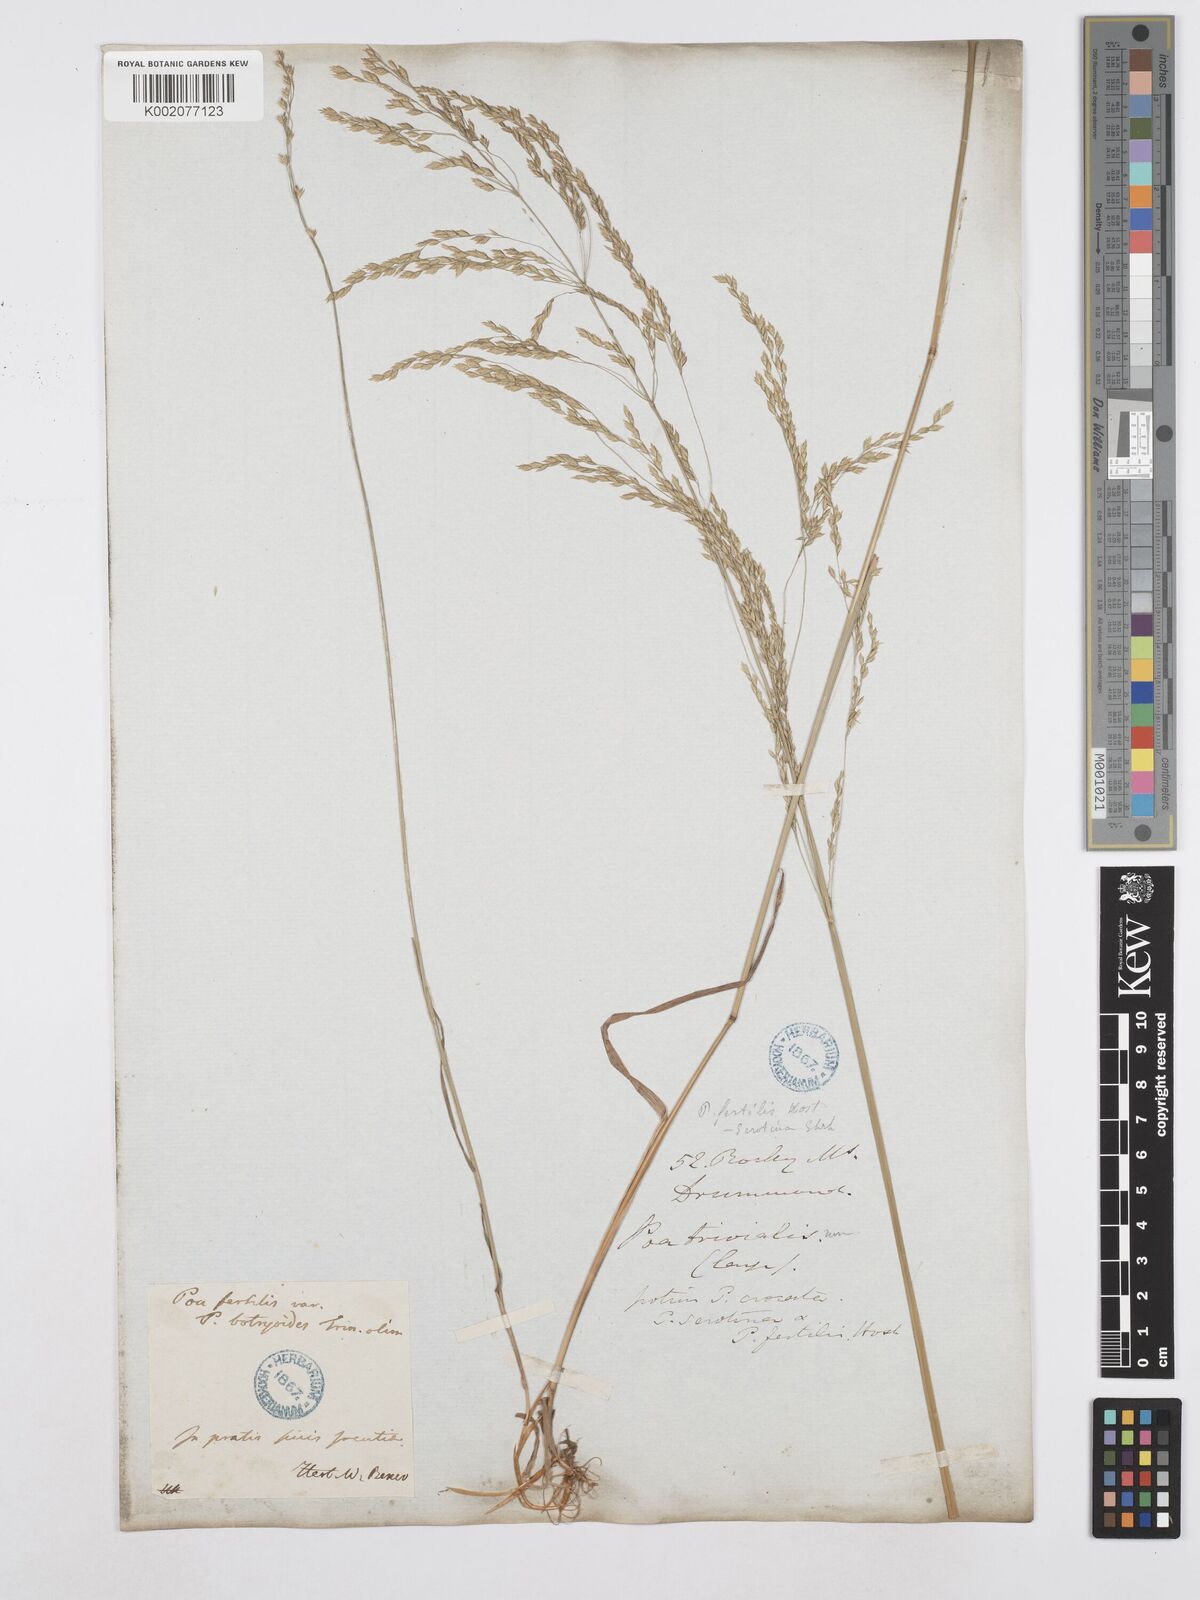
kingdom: Plantae
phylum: Tracheophyta
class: Liliopsida
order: Poales
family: Poaceae
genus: Poa
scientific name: Poa palustris
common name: Swamp meadow-grass
